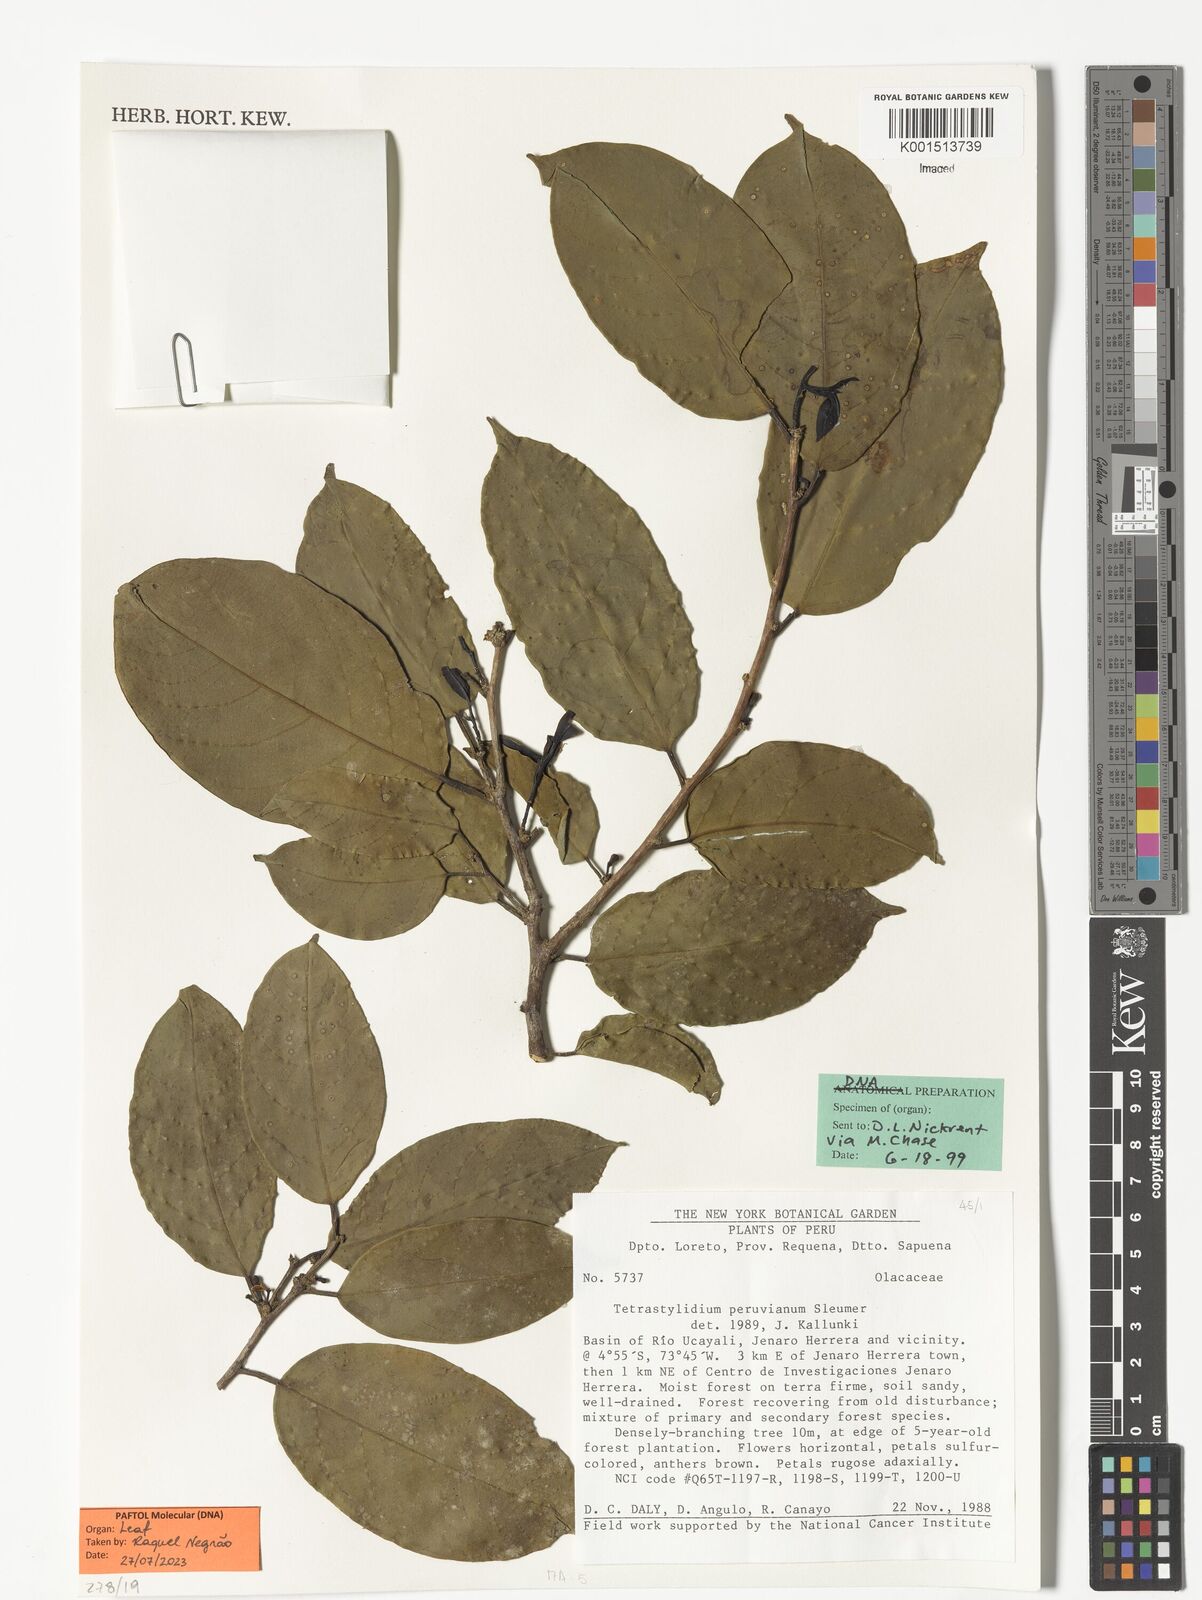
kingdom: Plantae
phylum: Tracheophyta
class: Magnoliopsida
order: Santalales
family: Strombosiaceae
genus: Tetrastylidium
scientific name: Tetrastylidium peruvianum
